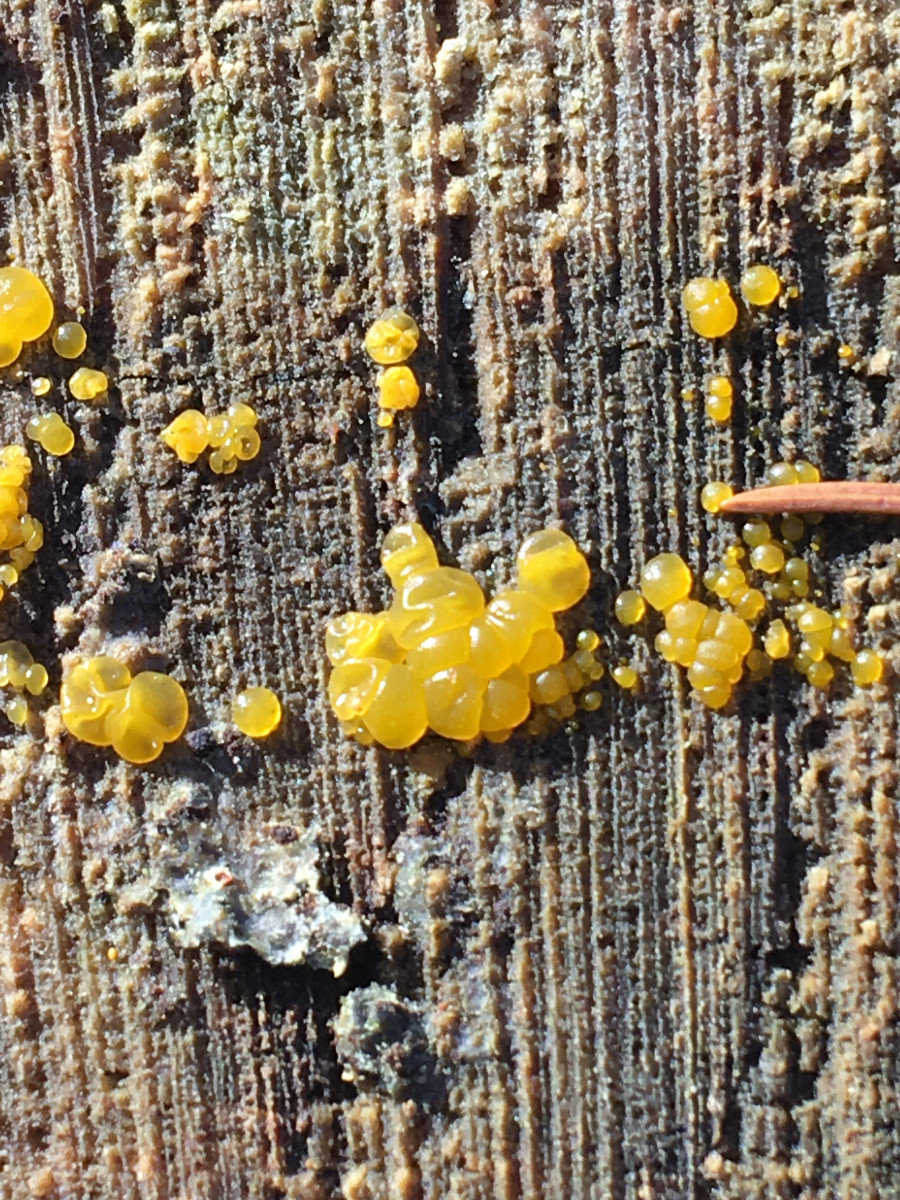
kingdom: Fungi
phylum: Basidiomycota
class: Dacrymycetes
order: Dacrymycetales
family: Dacrymycetaceae
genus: Dacrymyces
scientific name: Dacrymyces
